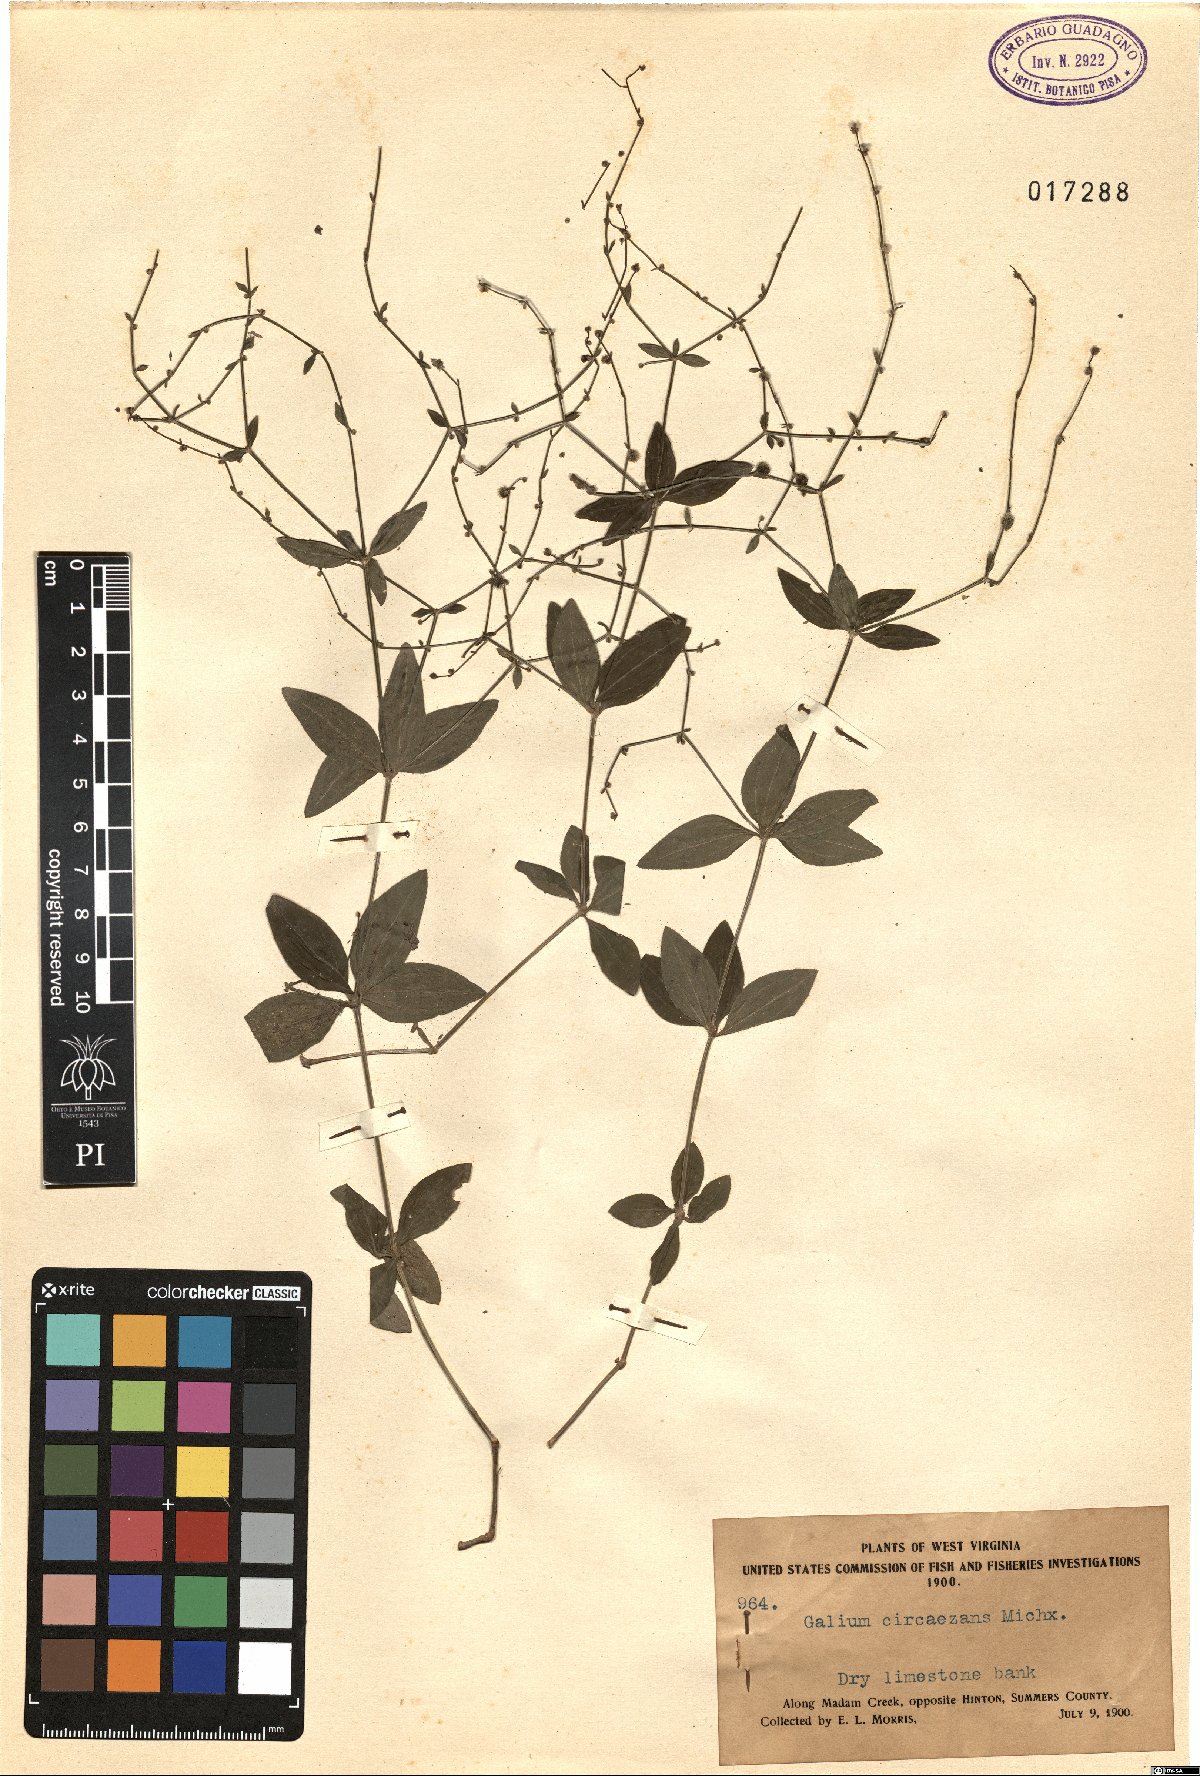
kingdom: Plantae
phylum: Tracheophyta
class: Magnoliopsida
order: Gentianales
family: Rubiaceae
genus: Galium
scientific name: Galium circaezans
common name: Forest bedstraw
